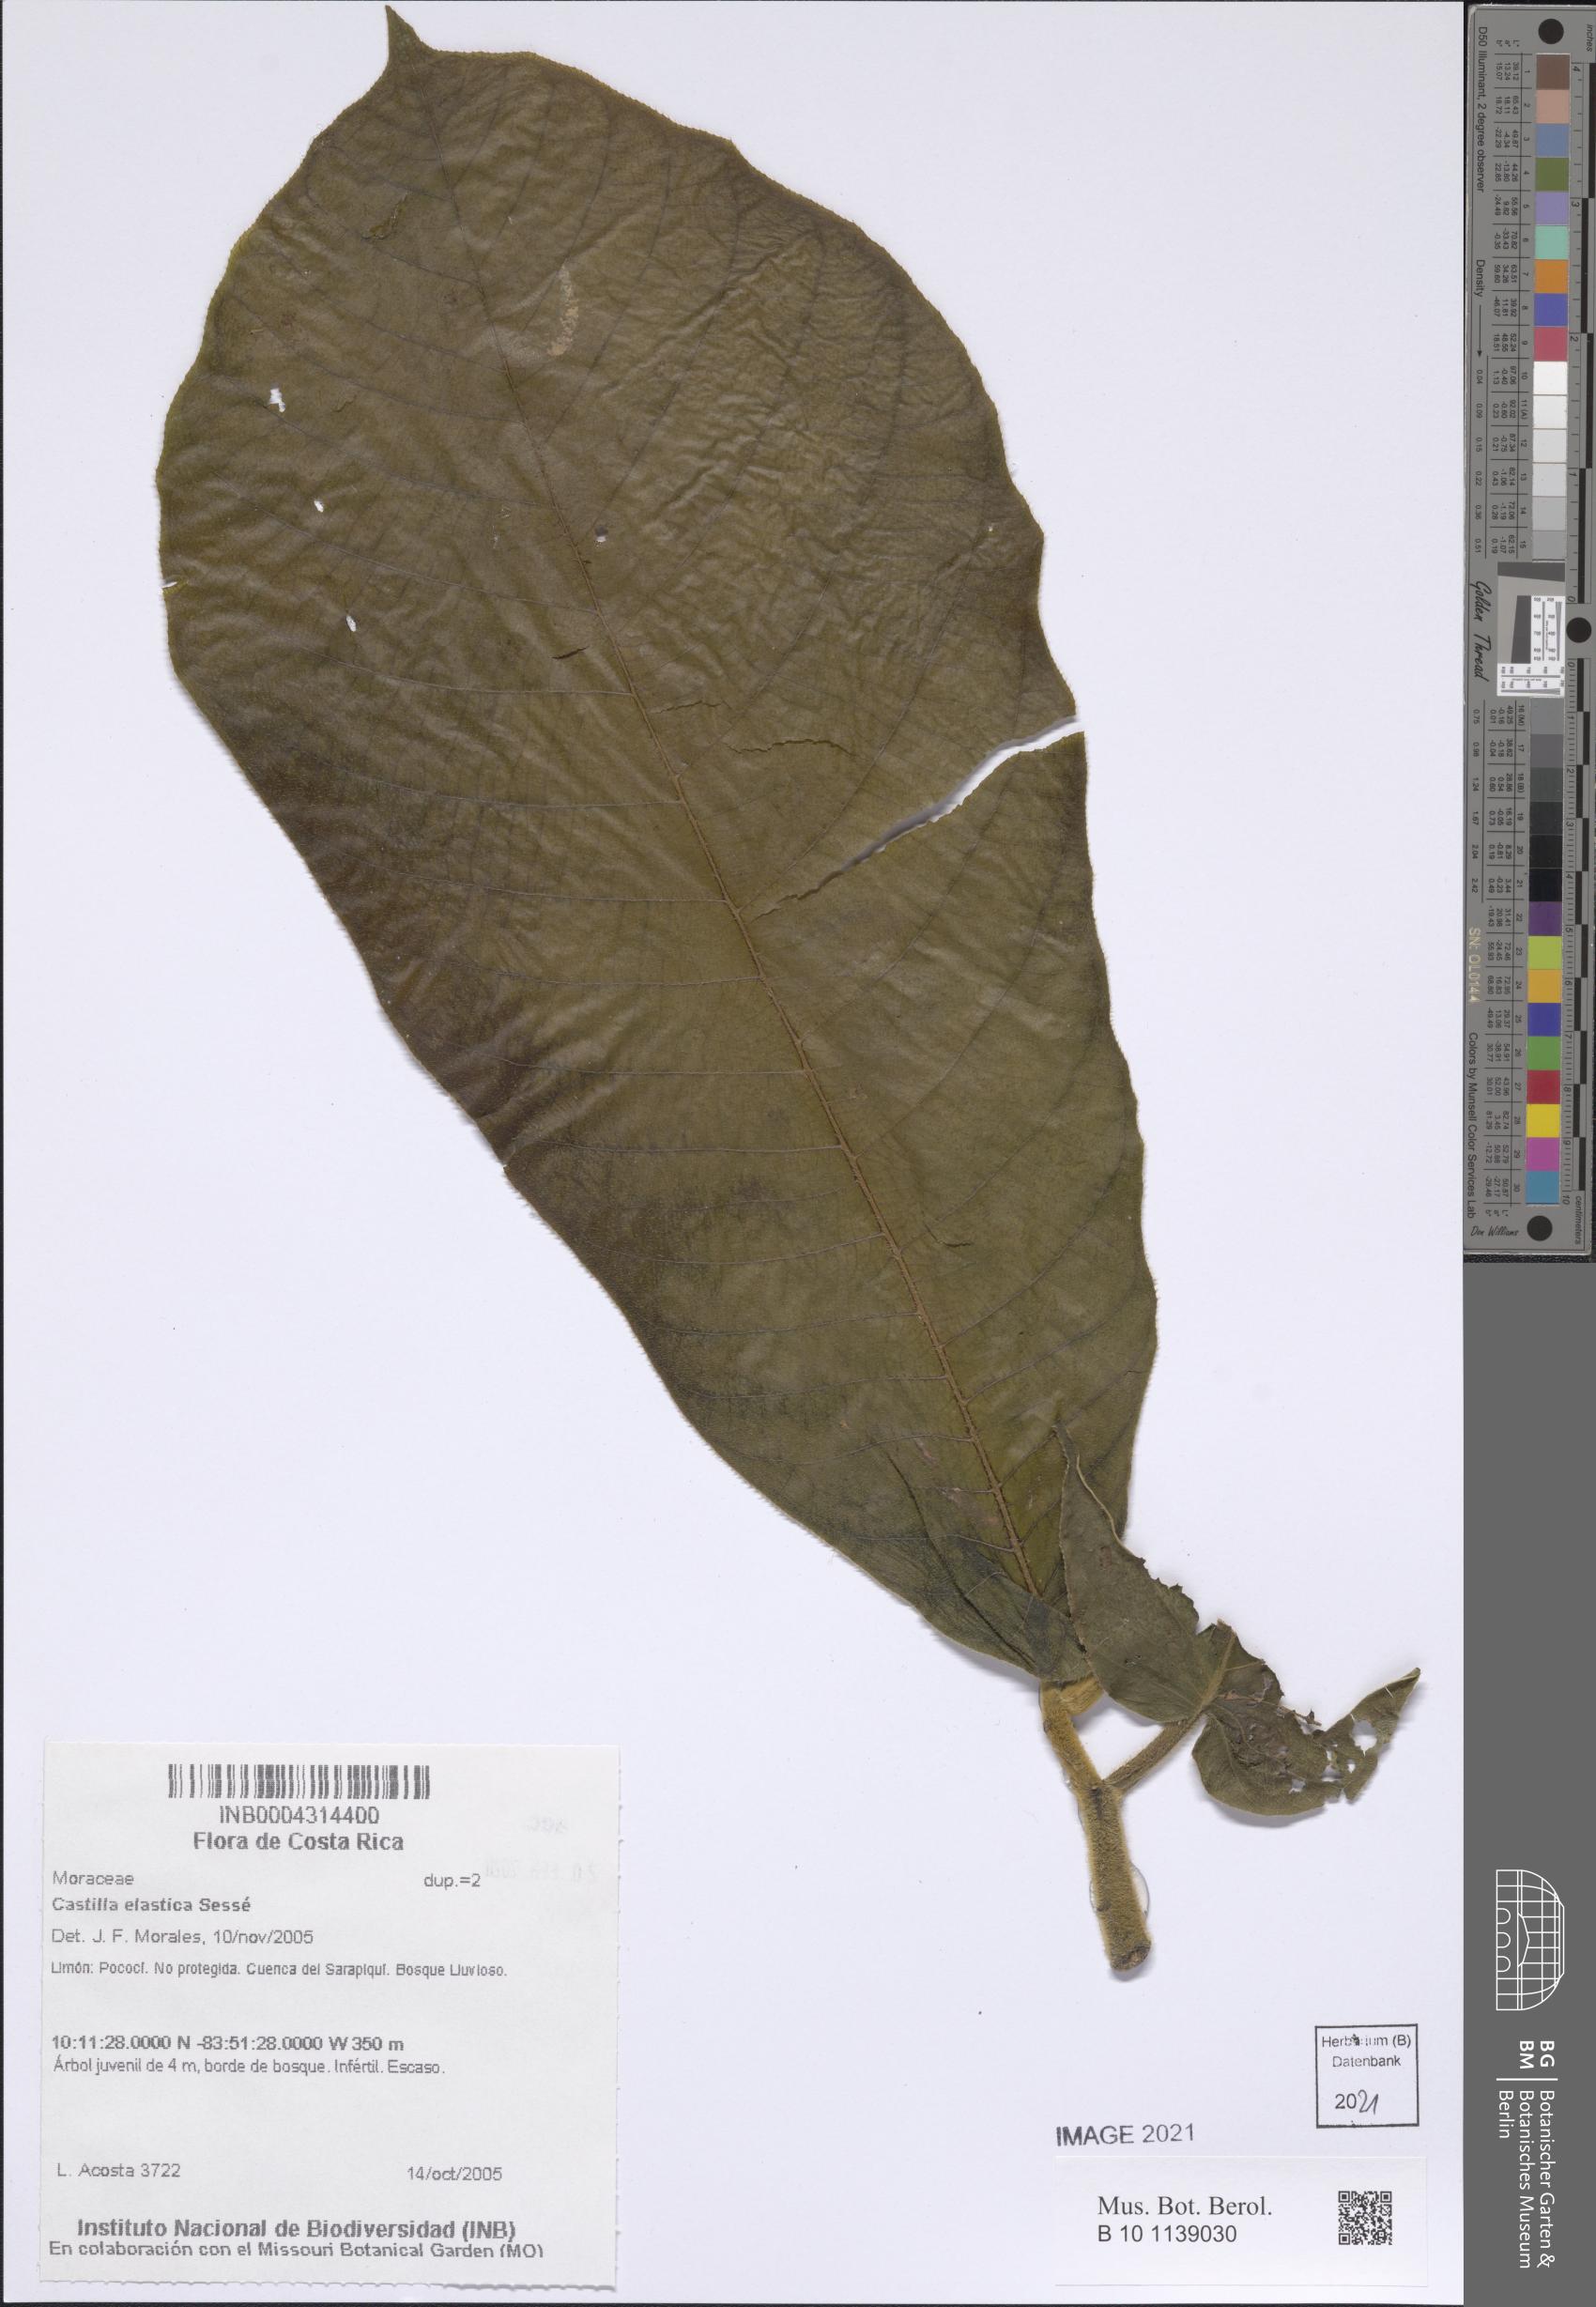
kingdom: Plantae
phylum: Tracheophyta
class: Magnoliopsida
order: Rosales
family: Moraceae
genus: Castilla
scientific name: Castilla elastica
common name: Castilla rubber
